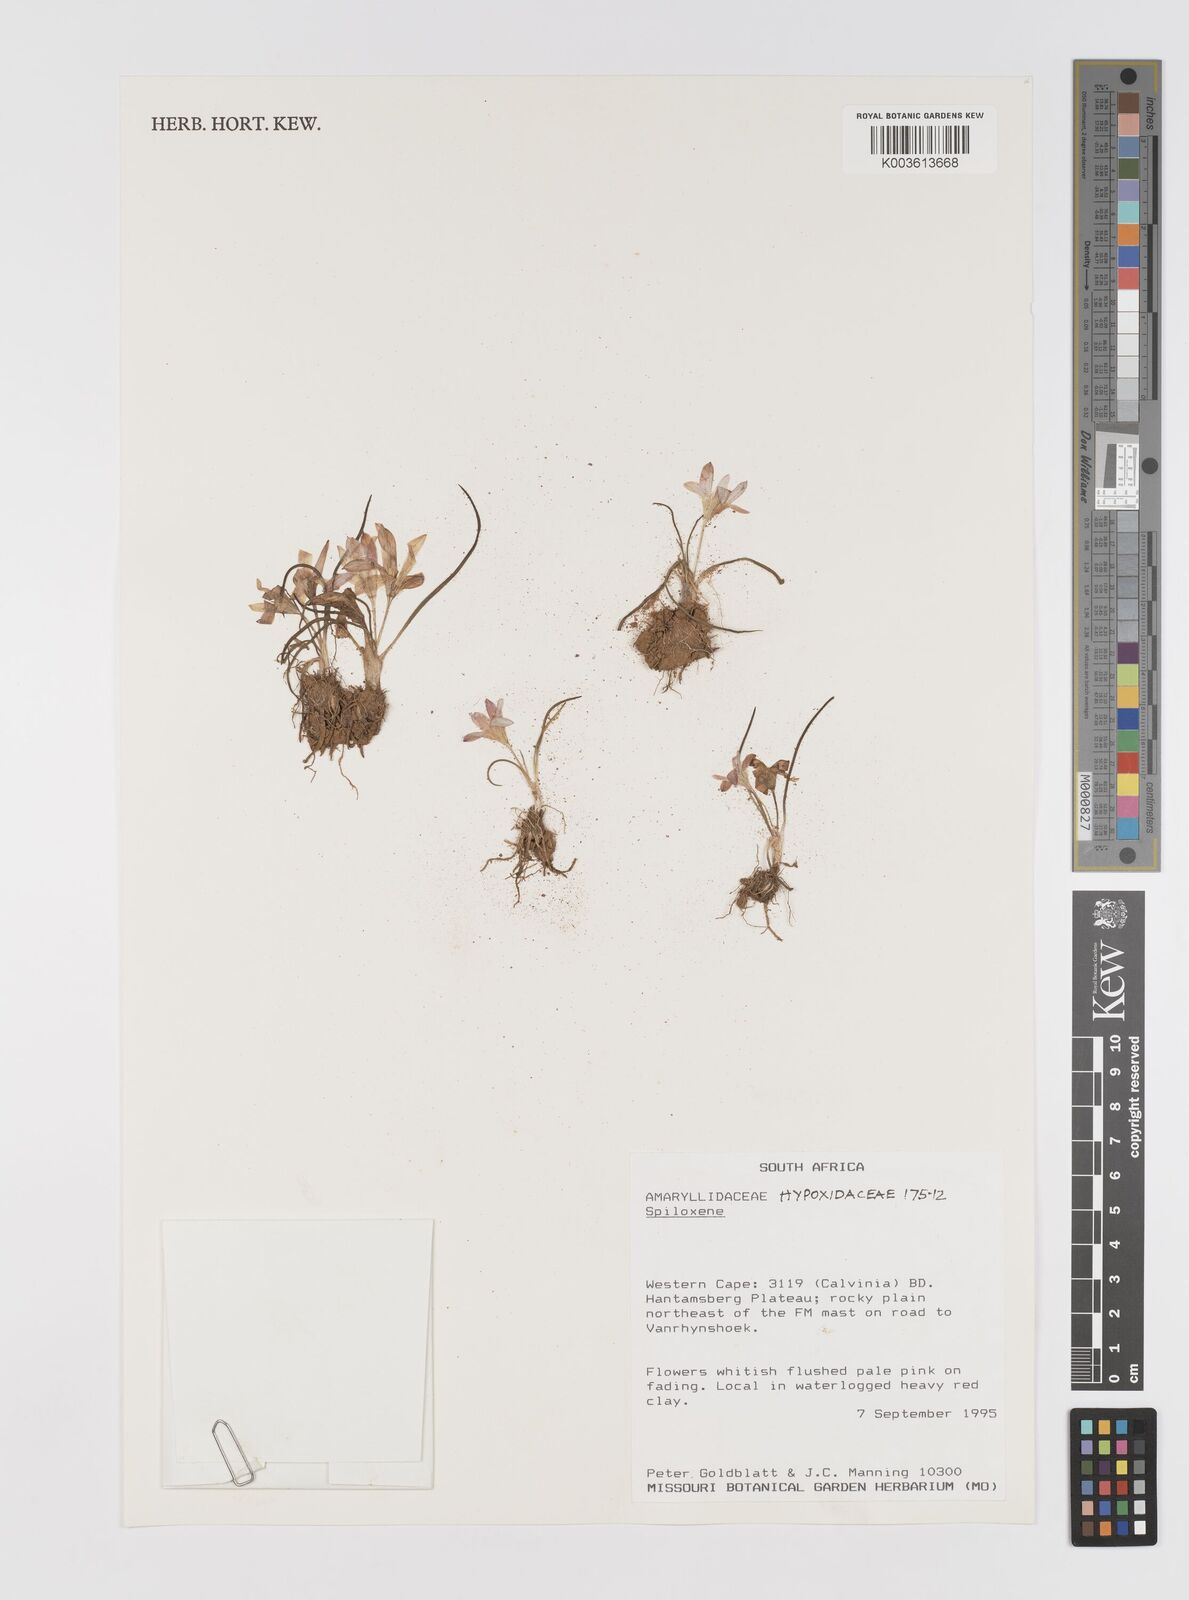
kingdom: Plantae
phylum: Tracheophyta
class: Liliopsida
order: Asparagales
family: Hypoxidaceae
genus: Pauridia
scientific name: Pauridia
